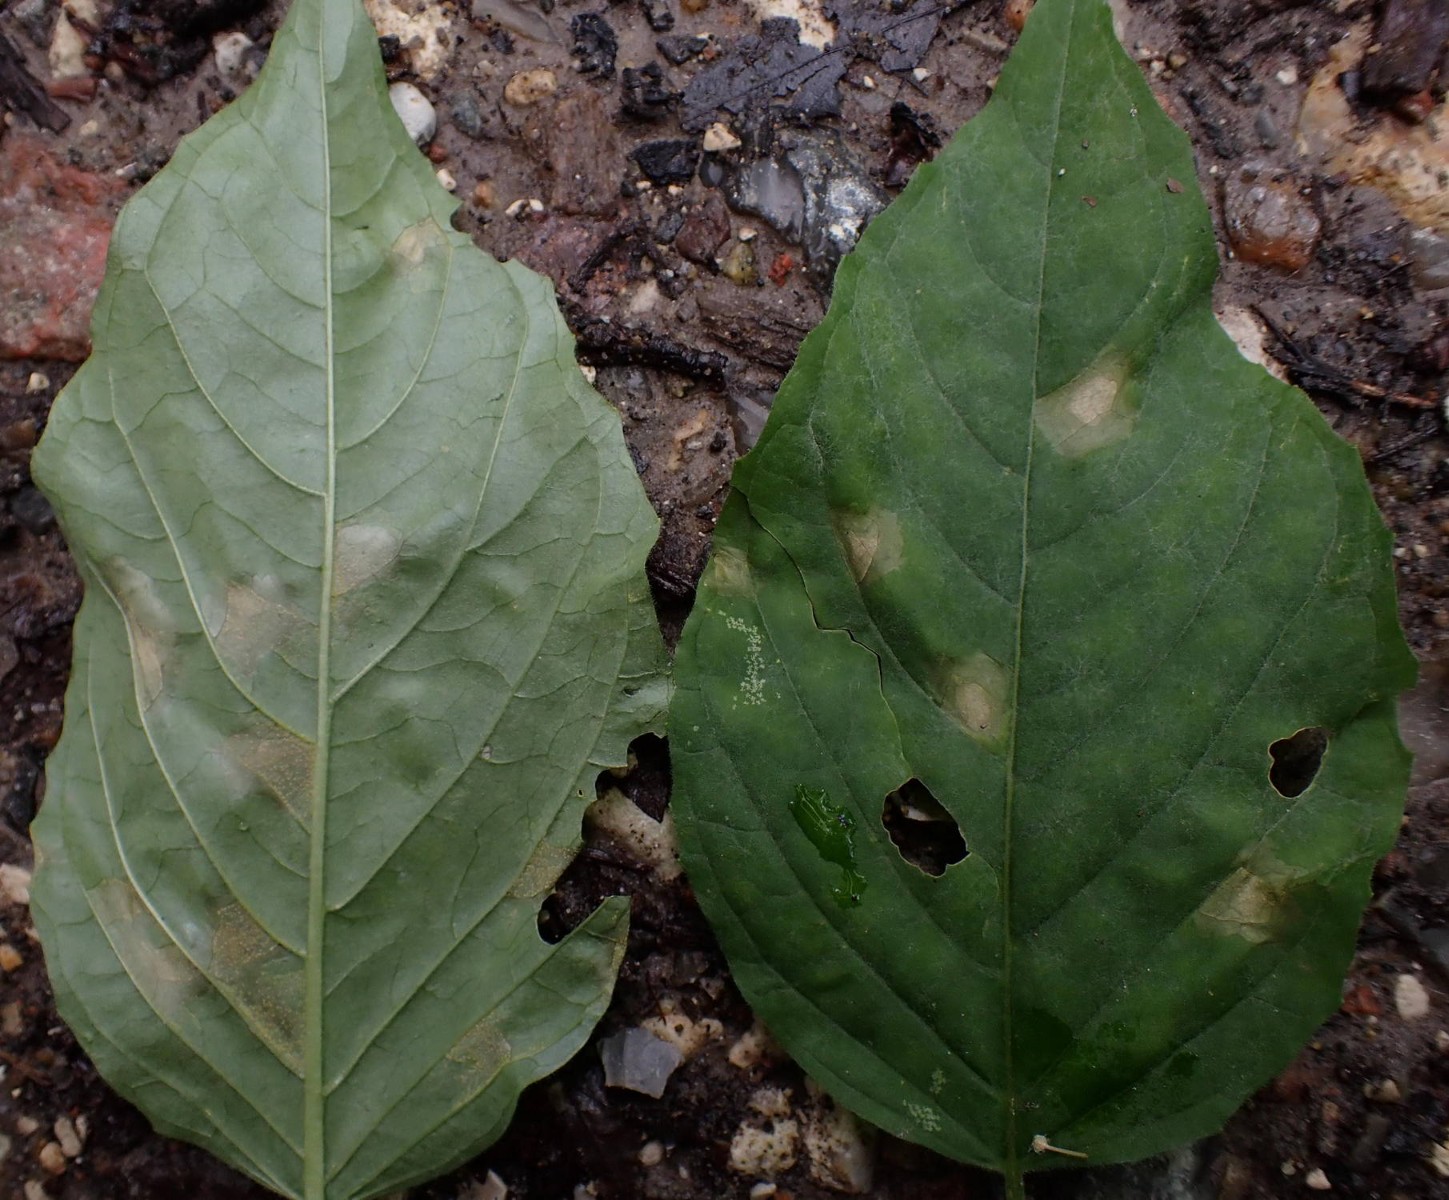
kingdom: Fungi
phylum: Basidiomycota
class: Pucciniomycetes
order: Pucciniales
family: Pucciniastraceae
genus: Pucciniastrum
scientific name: Pucciniastrum circaeae
